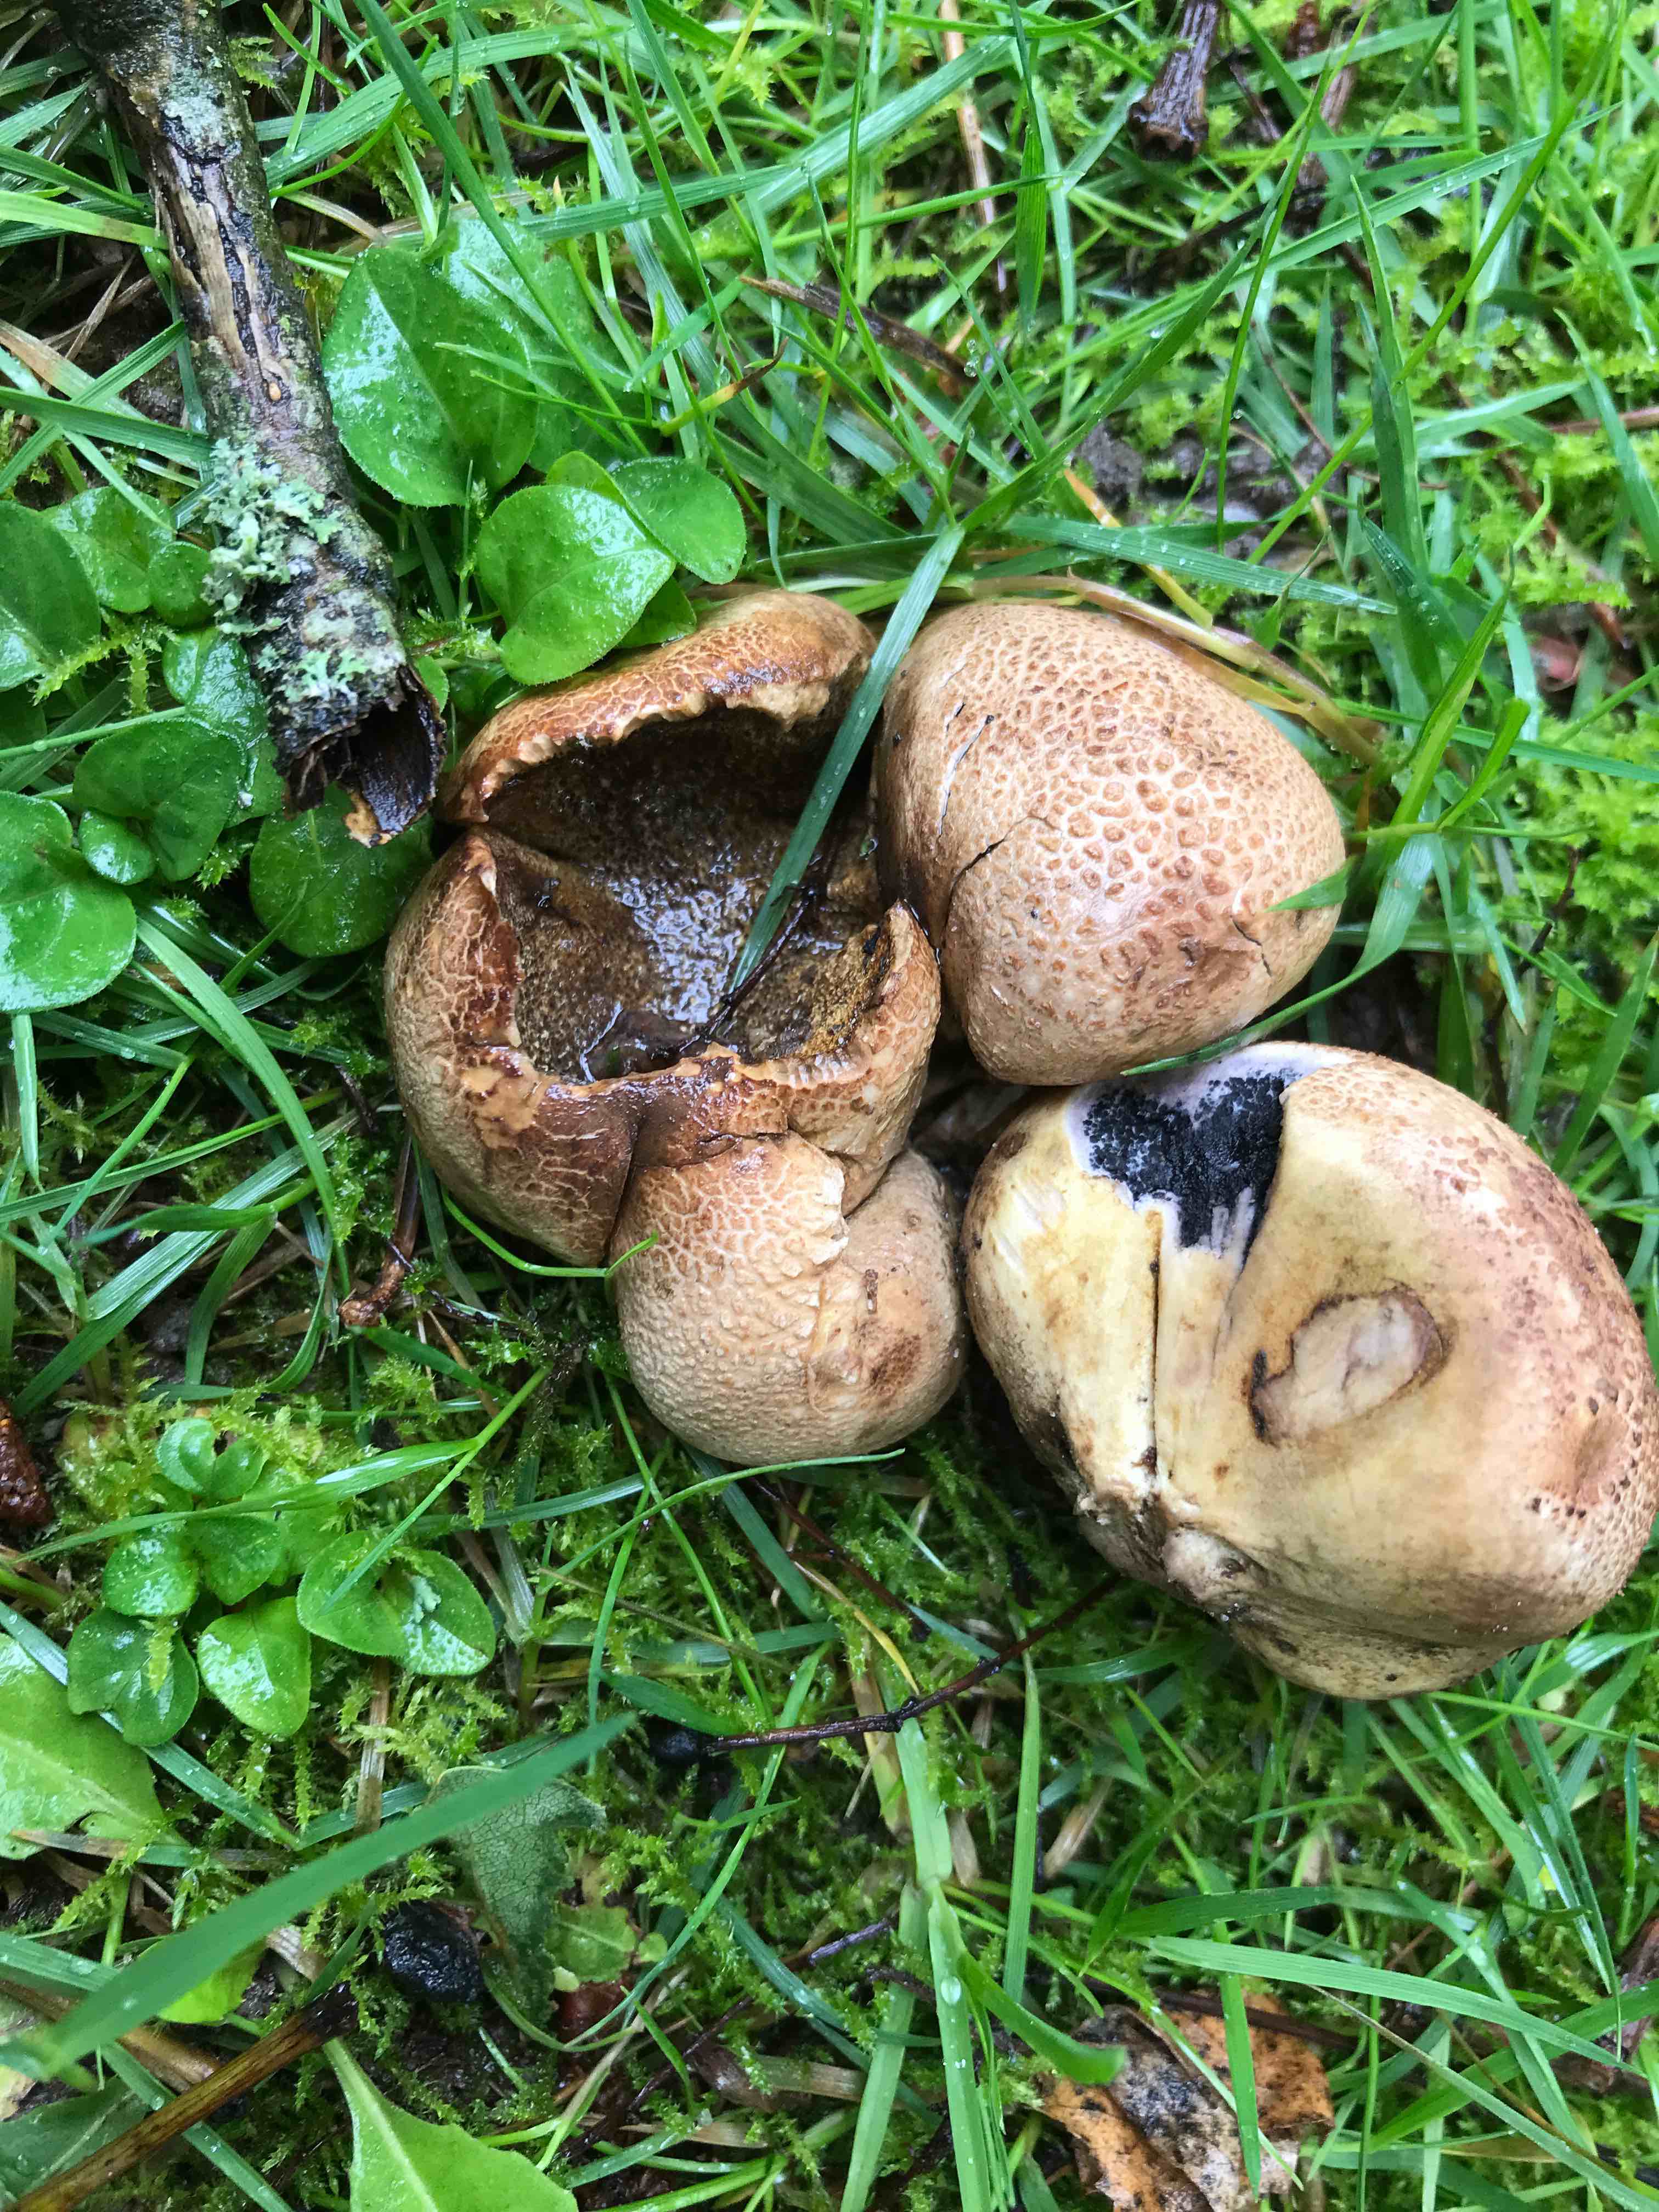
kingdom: Fungi
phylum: Basidiomycota
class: Agaricomycetes
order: Boletales
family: Sclerodermataceae
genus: Scleroderma
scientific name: Scleroderma
